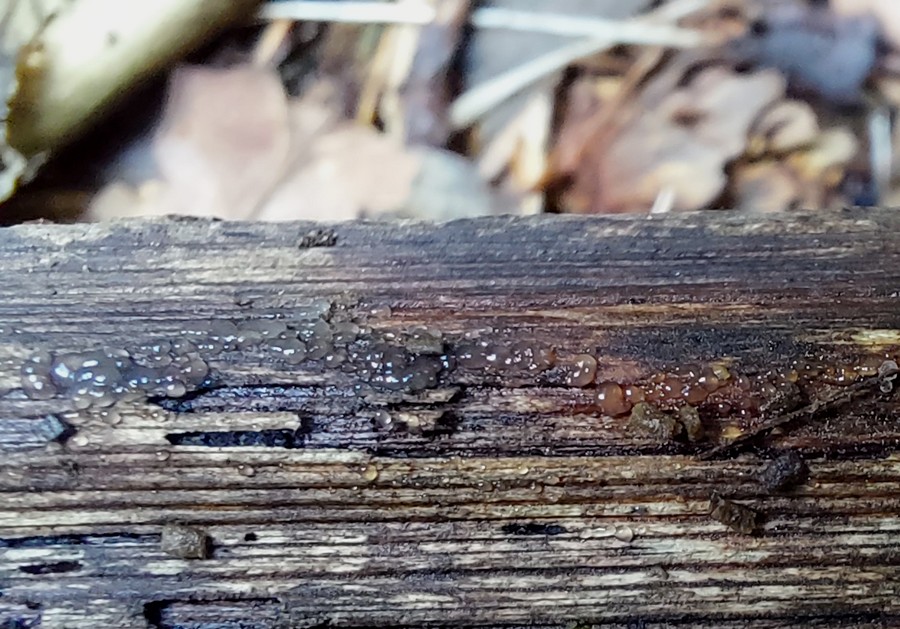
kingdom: Fungi
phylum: Basidiomycota
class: Agaricomycetes
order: Auriculariales
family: Hyaloriaceae
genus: Myxarium
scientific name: Myxarium
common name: bævretop
